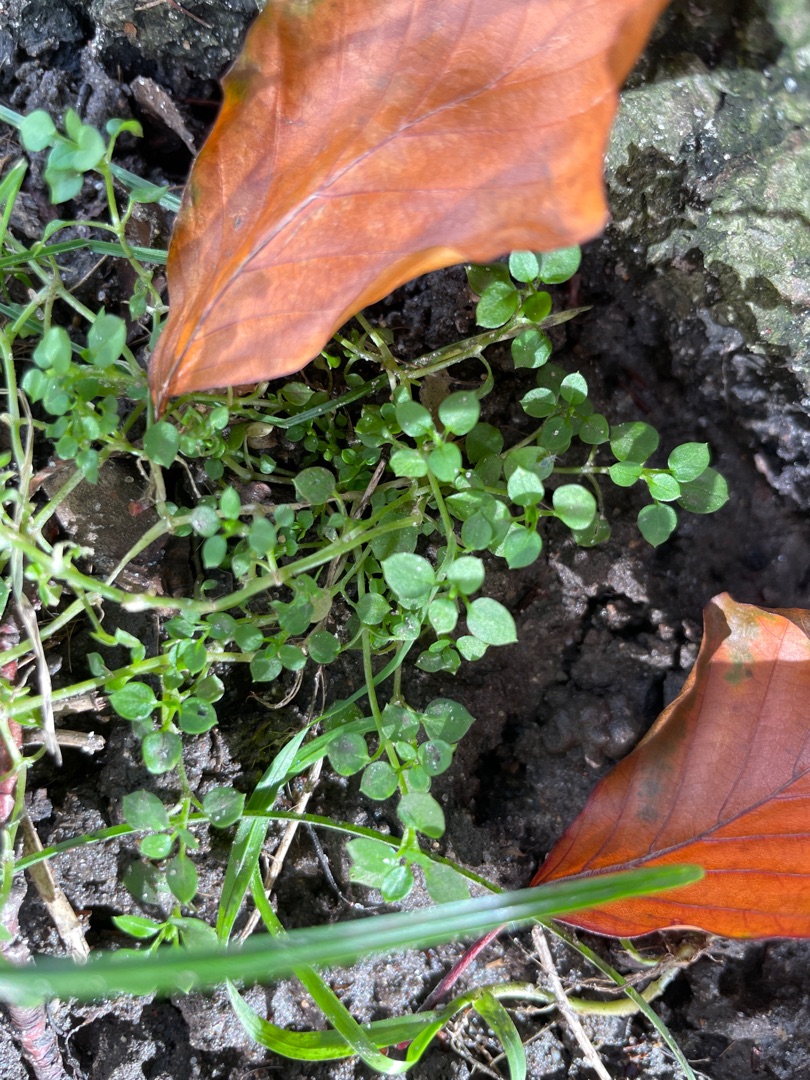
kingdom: Plantae
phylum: Tracheophyta
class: Magnoliopsida
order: Caryophyllales
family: Caryophyllaceae
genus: Stellaria
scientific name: Stellaria media
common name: Almindelig fuglegræs
